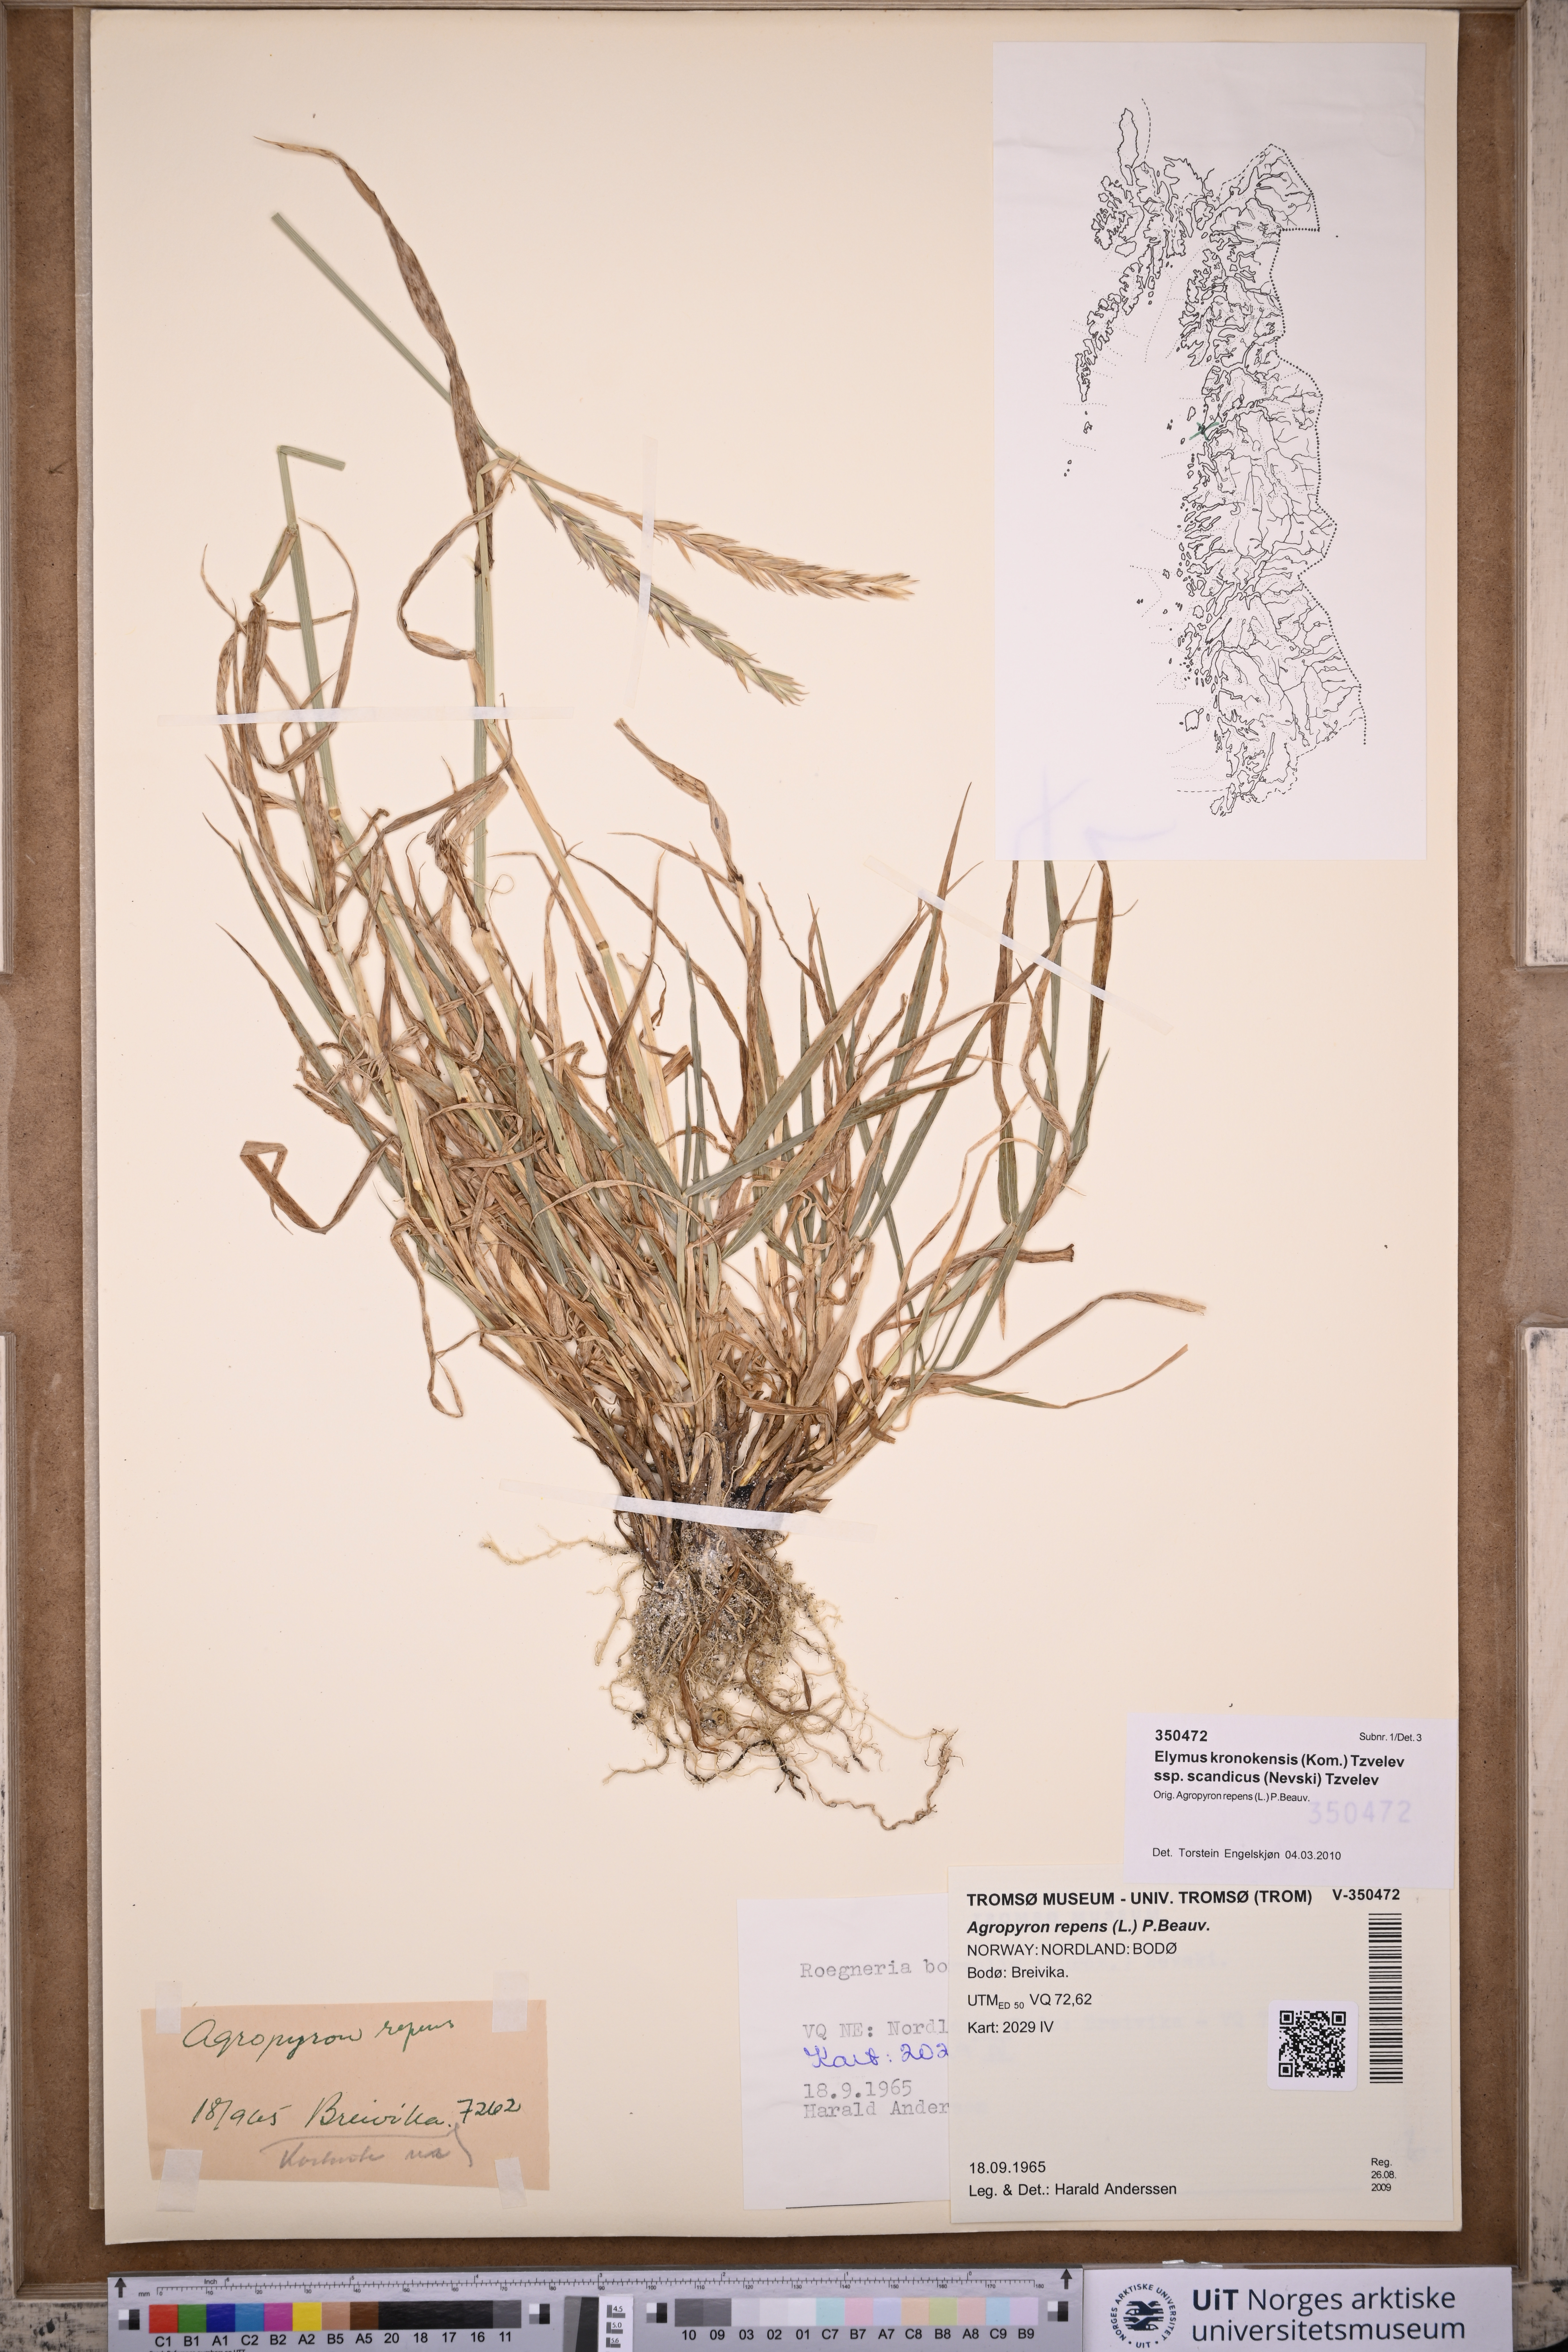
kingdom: Plantae
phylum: Tracheophyta
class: Liliopsida
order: Poales
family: Poaceae
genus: Elymus
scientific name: Elymus macrourus
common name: Northern wheatgrass
